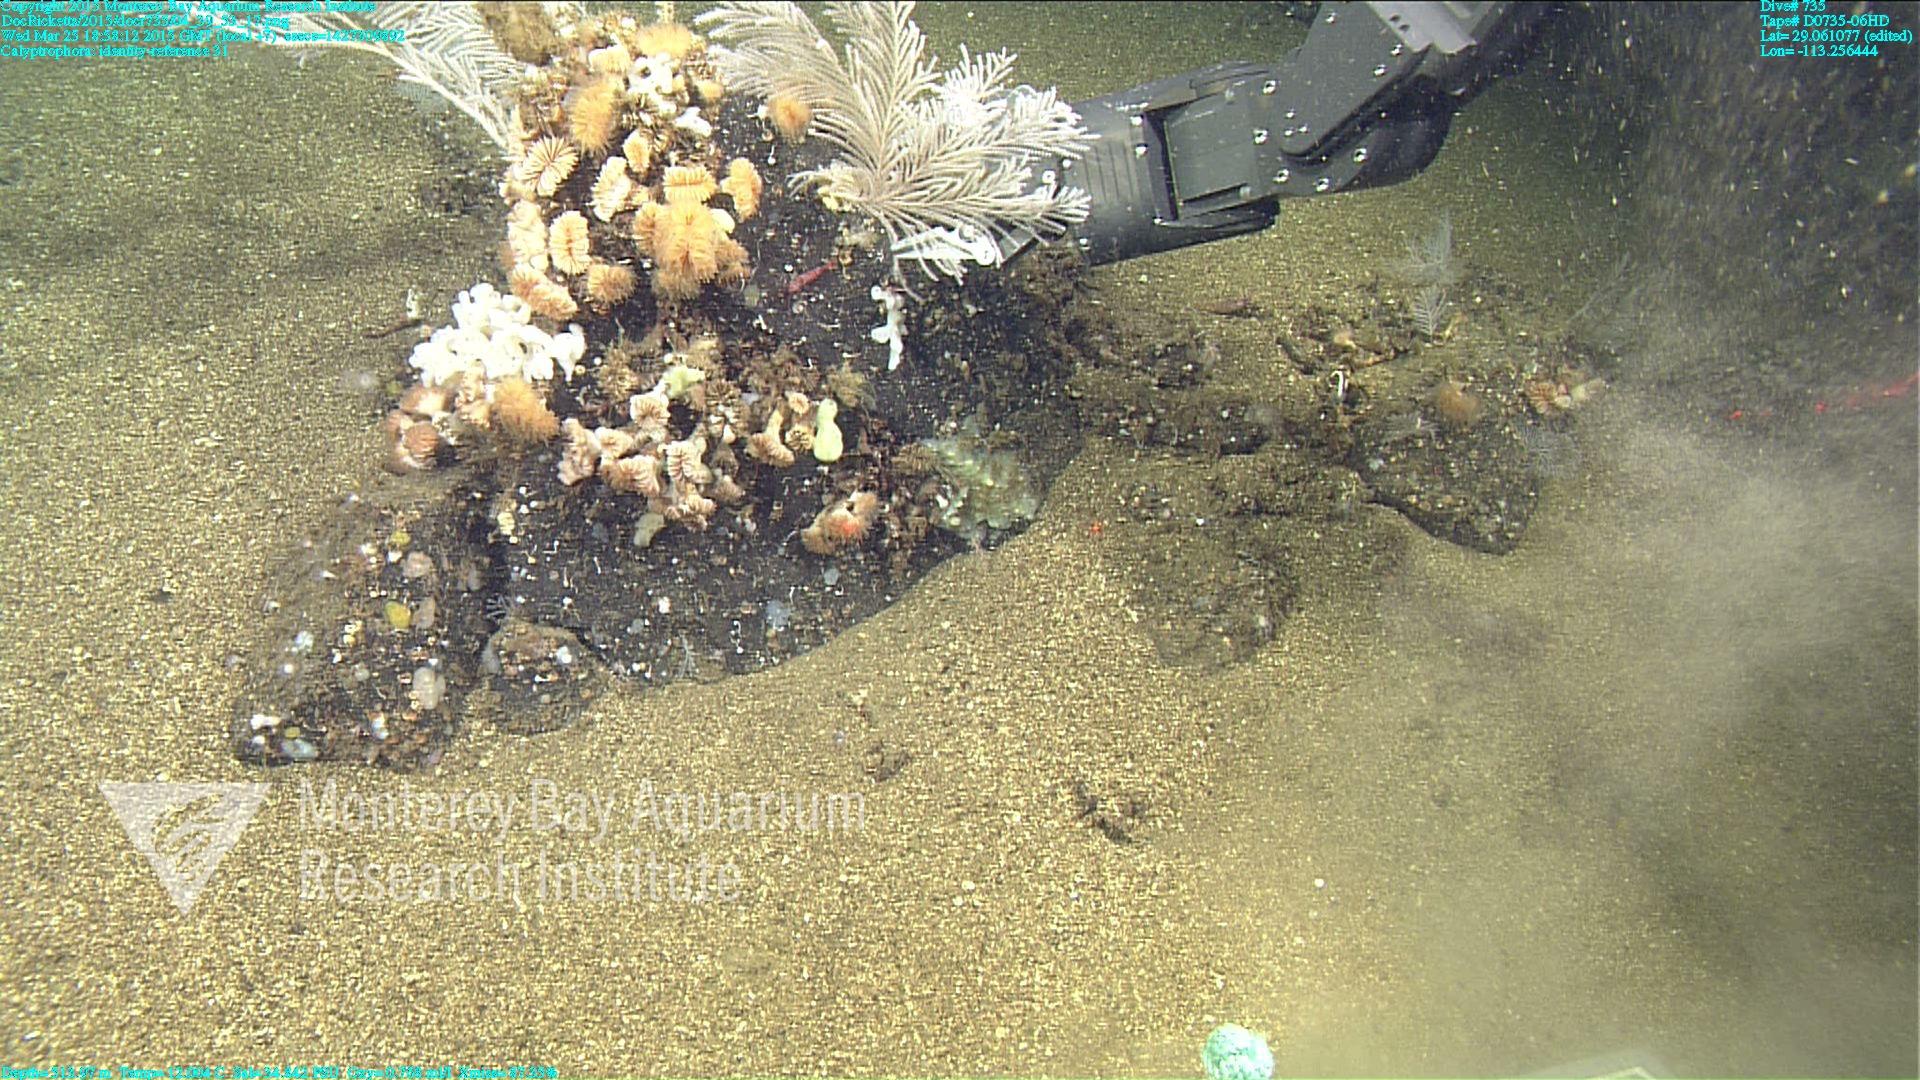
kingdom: Animalia
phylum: Cnidaria
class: Anthozoa
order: Scleralcyonacea
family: Primnoidae
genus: Calyptrophora
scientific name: Calyptrophora
